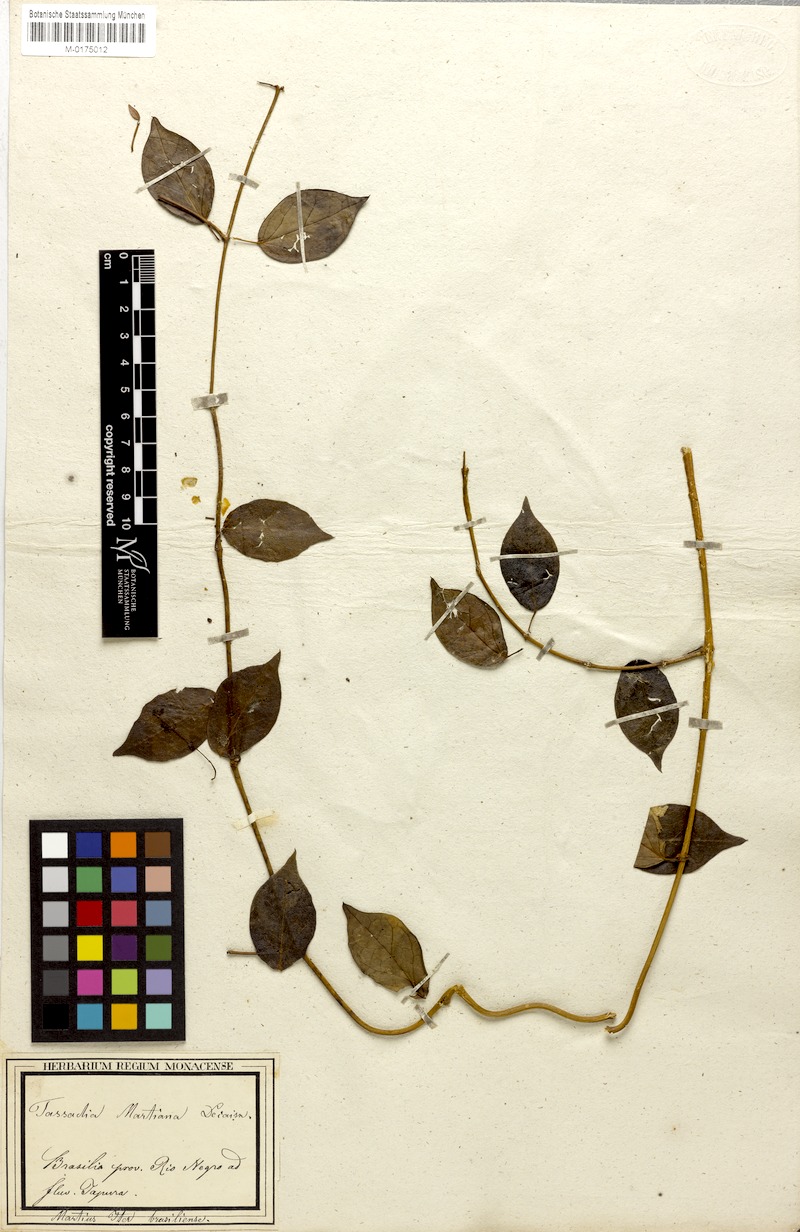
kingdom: Plantae
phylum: Tracheophyta
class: Magnoliopsida
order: Gentianales
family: Apocynaceae
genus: Tassadia
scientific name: Tassadia martiana
